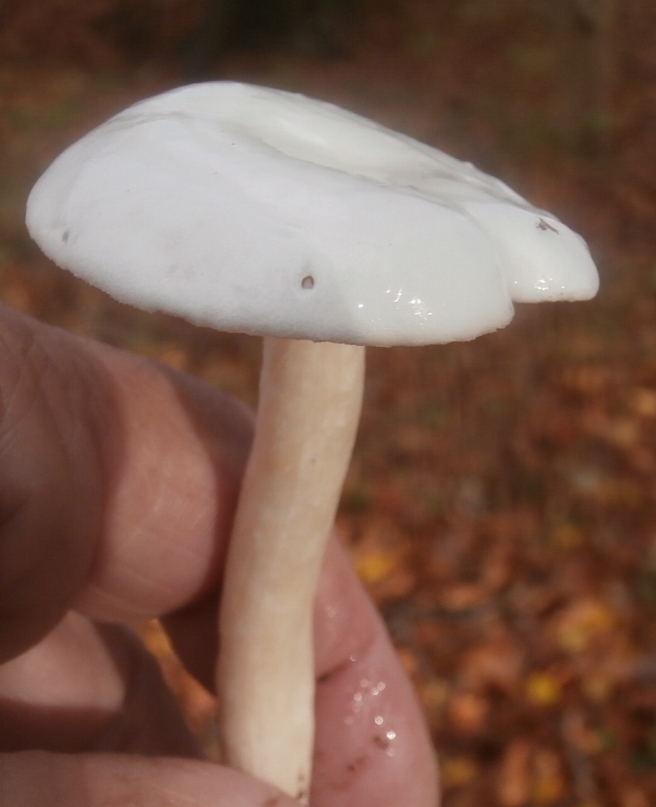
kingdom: Fungi
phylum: Basidiomycota
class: Agaricomycetes
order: Agaricales
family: Hygrophoraceae
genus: Hygrophorus
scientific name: Hygrophorus eburneus
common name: elfenbens-sneglehat
